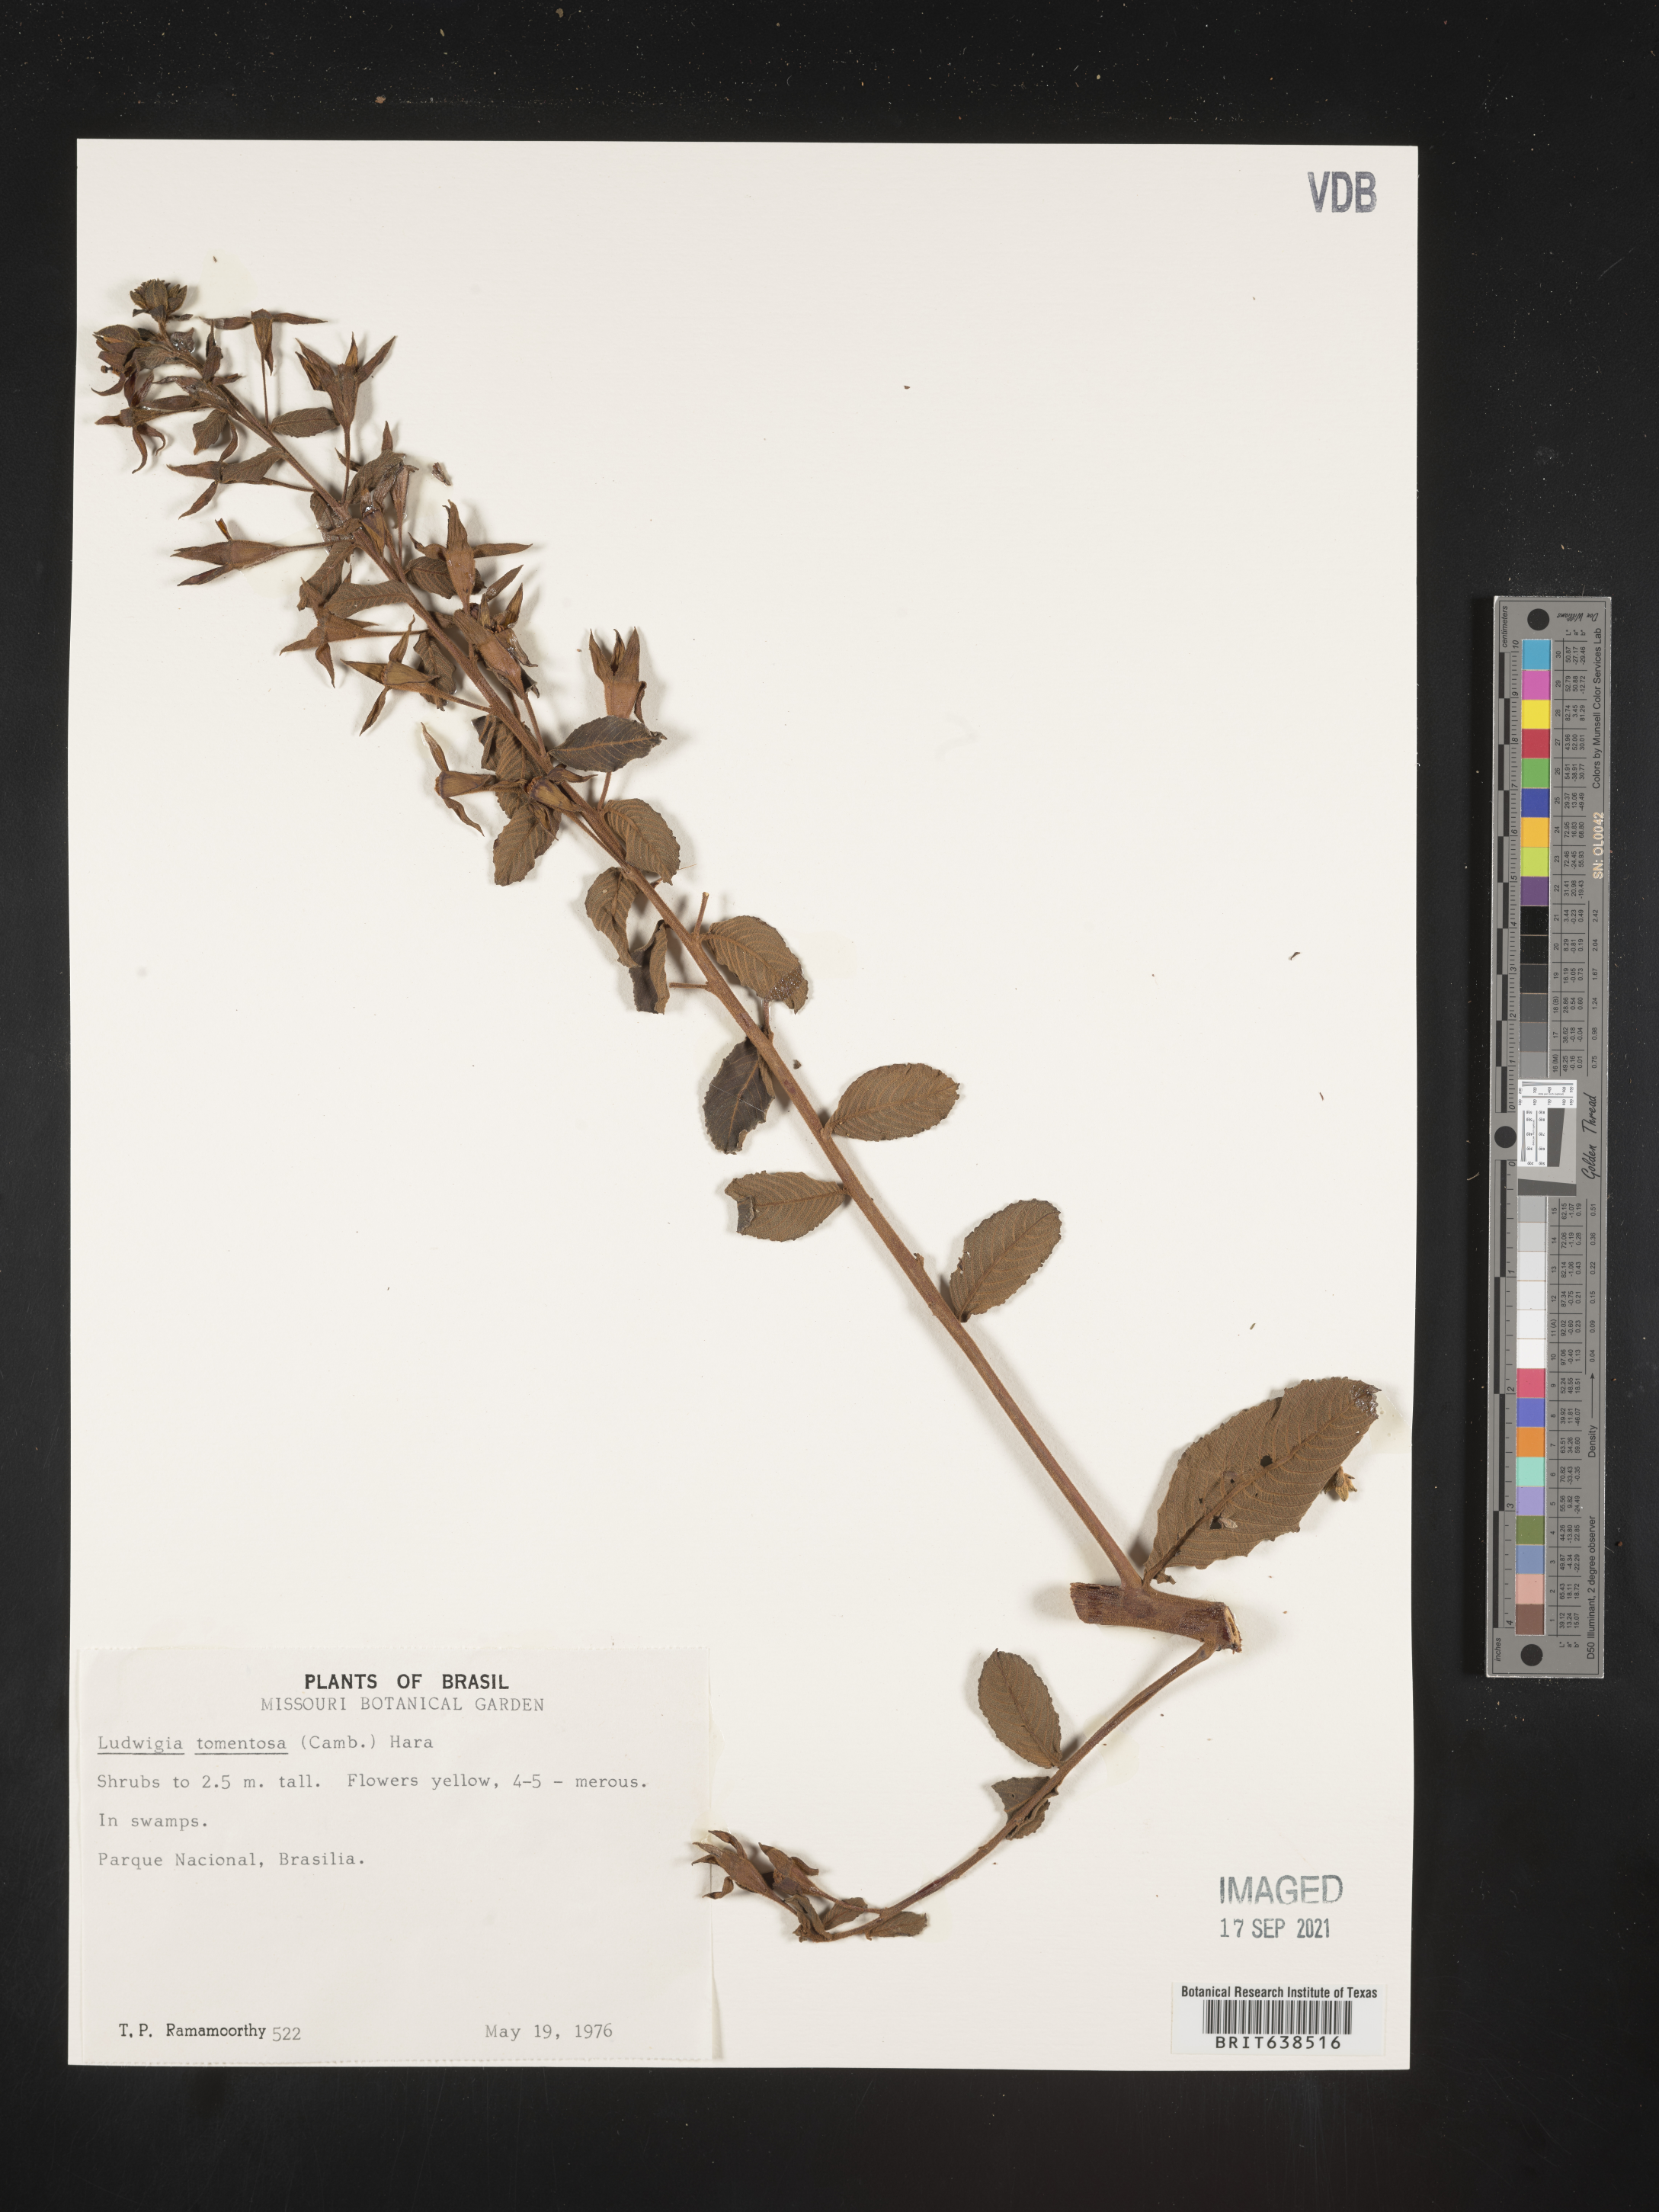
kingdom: Plantae
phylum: Tracheophyta
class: Magnoliopsida
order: Myrtales
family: Onagraceae
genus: Ludwigia
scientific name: Ludwigia
